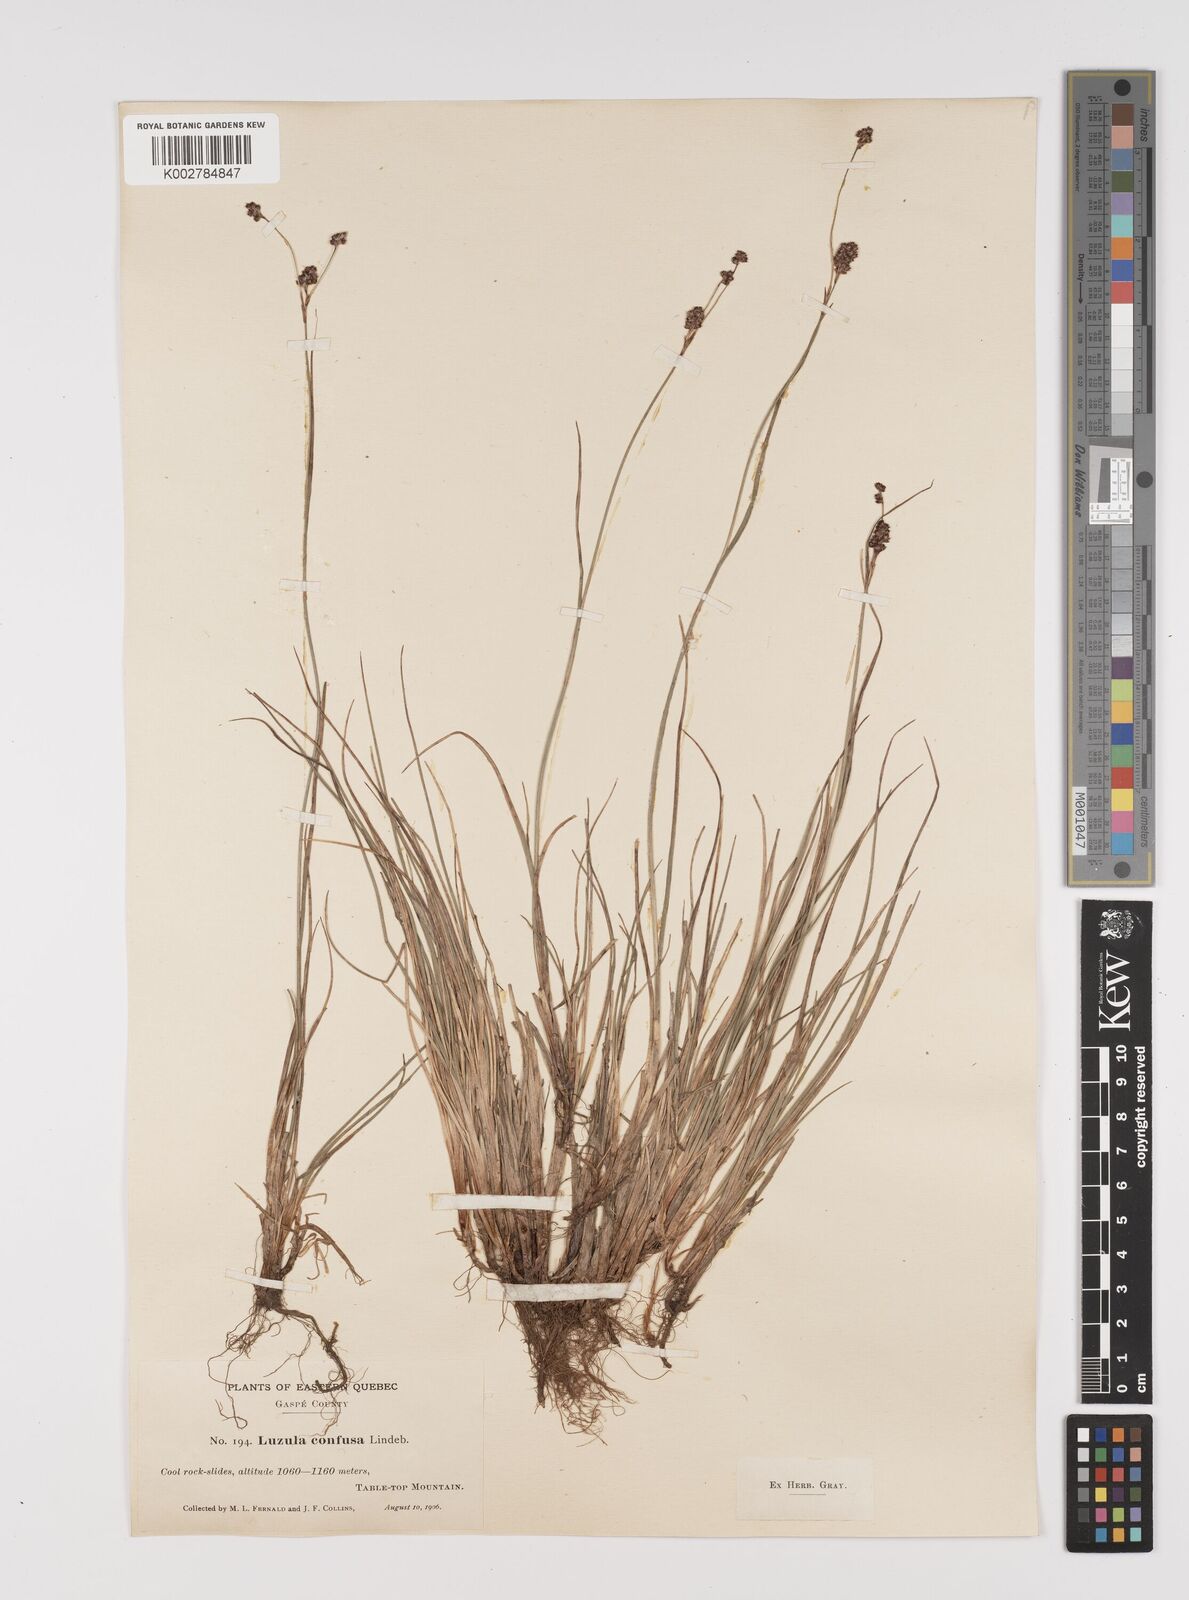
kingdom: Plantae
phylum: Tracheophyta
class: Liliopsida
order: Poales
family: Juncaceae
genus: Luzula
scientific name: Luzula confusa
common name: Northern wood rush
